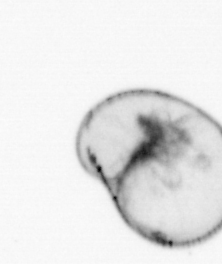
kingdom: Chromista
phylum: Myzozoa
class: Dinophyceae
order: Noctilucales
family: Noctilucaceae
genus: Noctiluca
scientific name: Noctiluca scintillans
